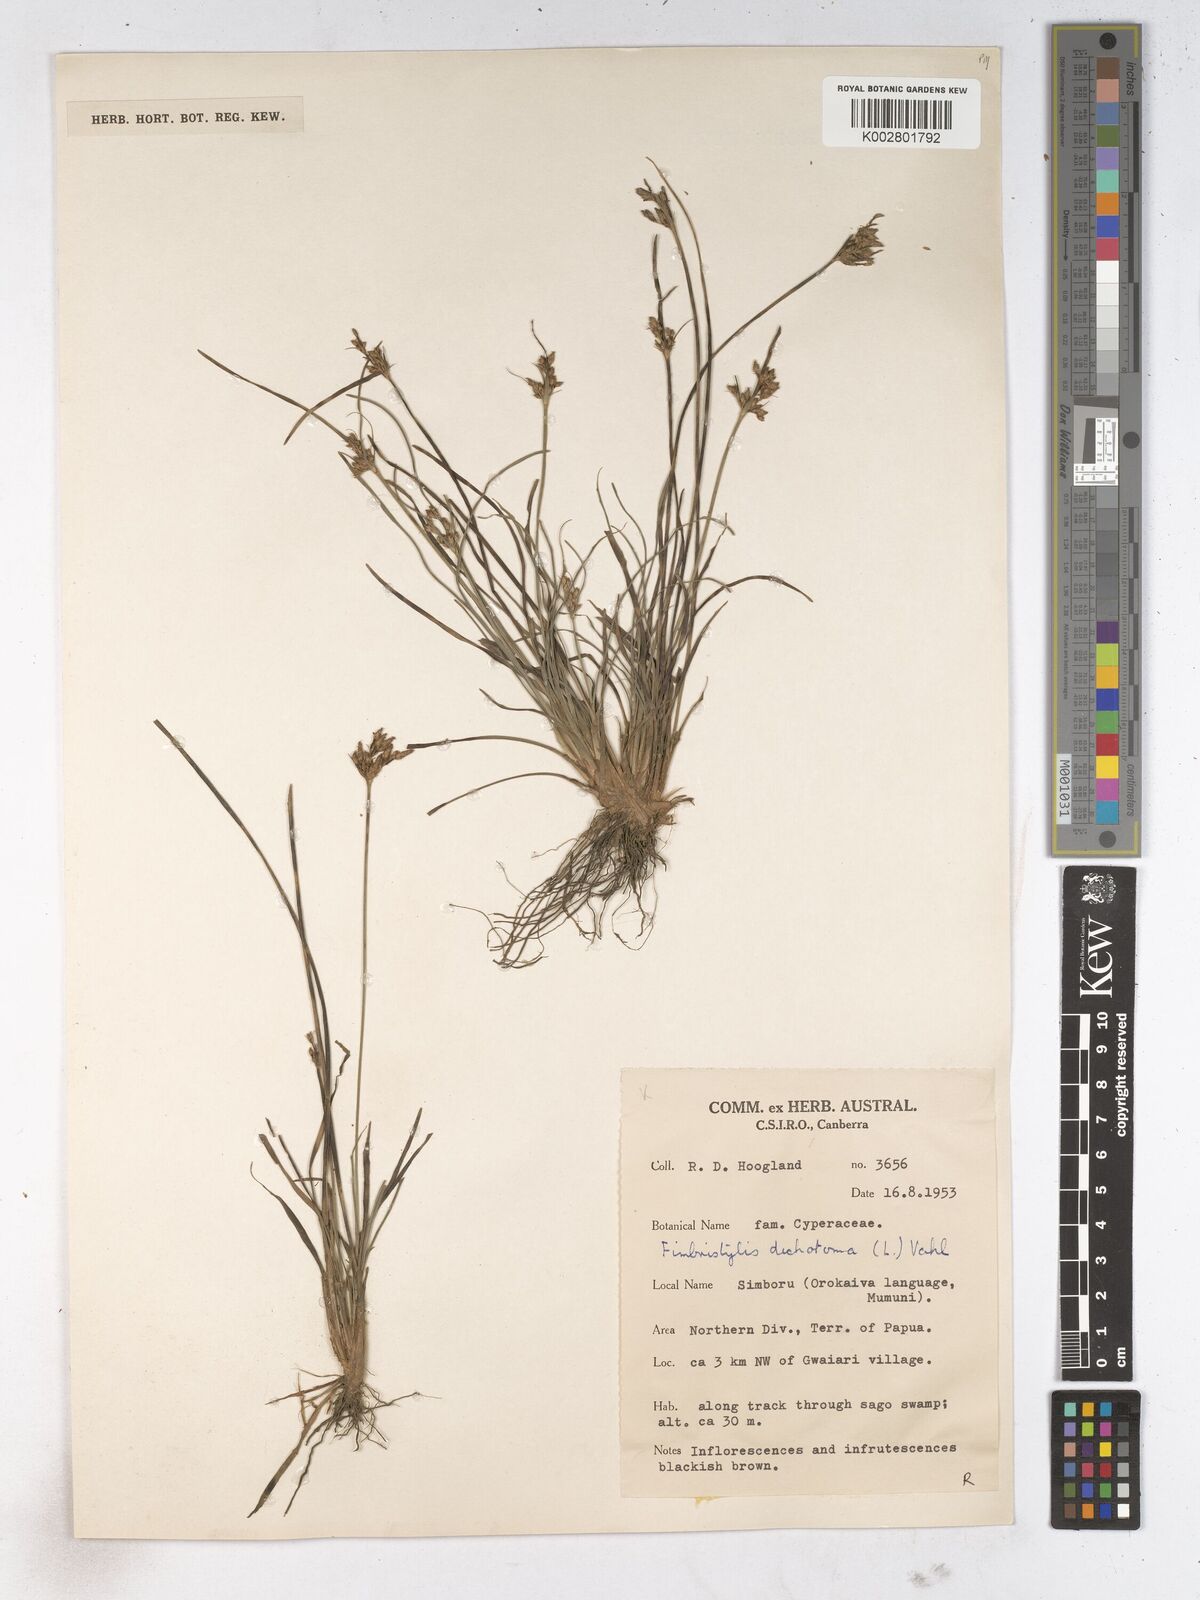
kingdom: Plantae
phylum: Tracheophyta
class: Liliopsida
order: Poales
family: Cyperaceae
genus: Fimbristylis
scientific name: Fimbristylis dichotoma
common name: Forked fimbry
